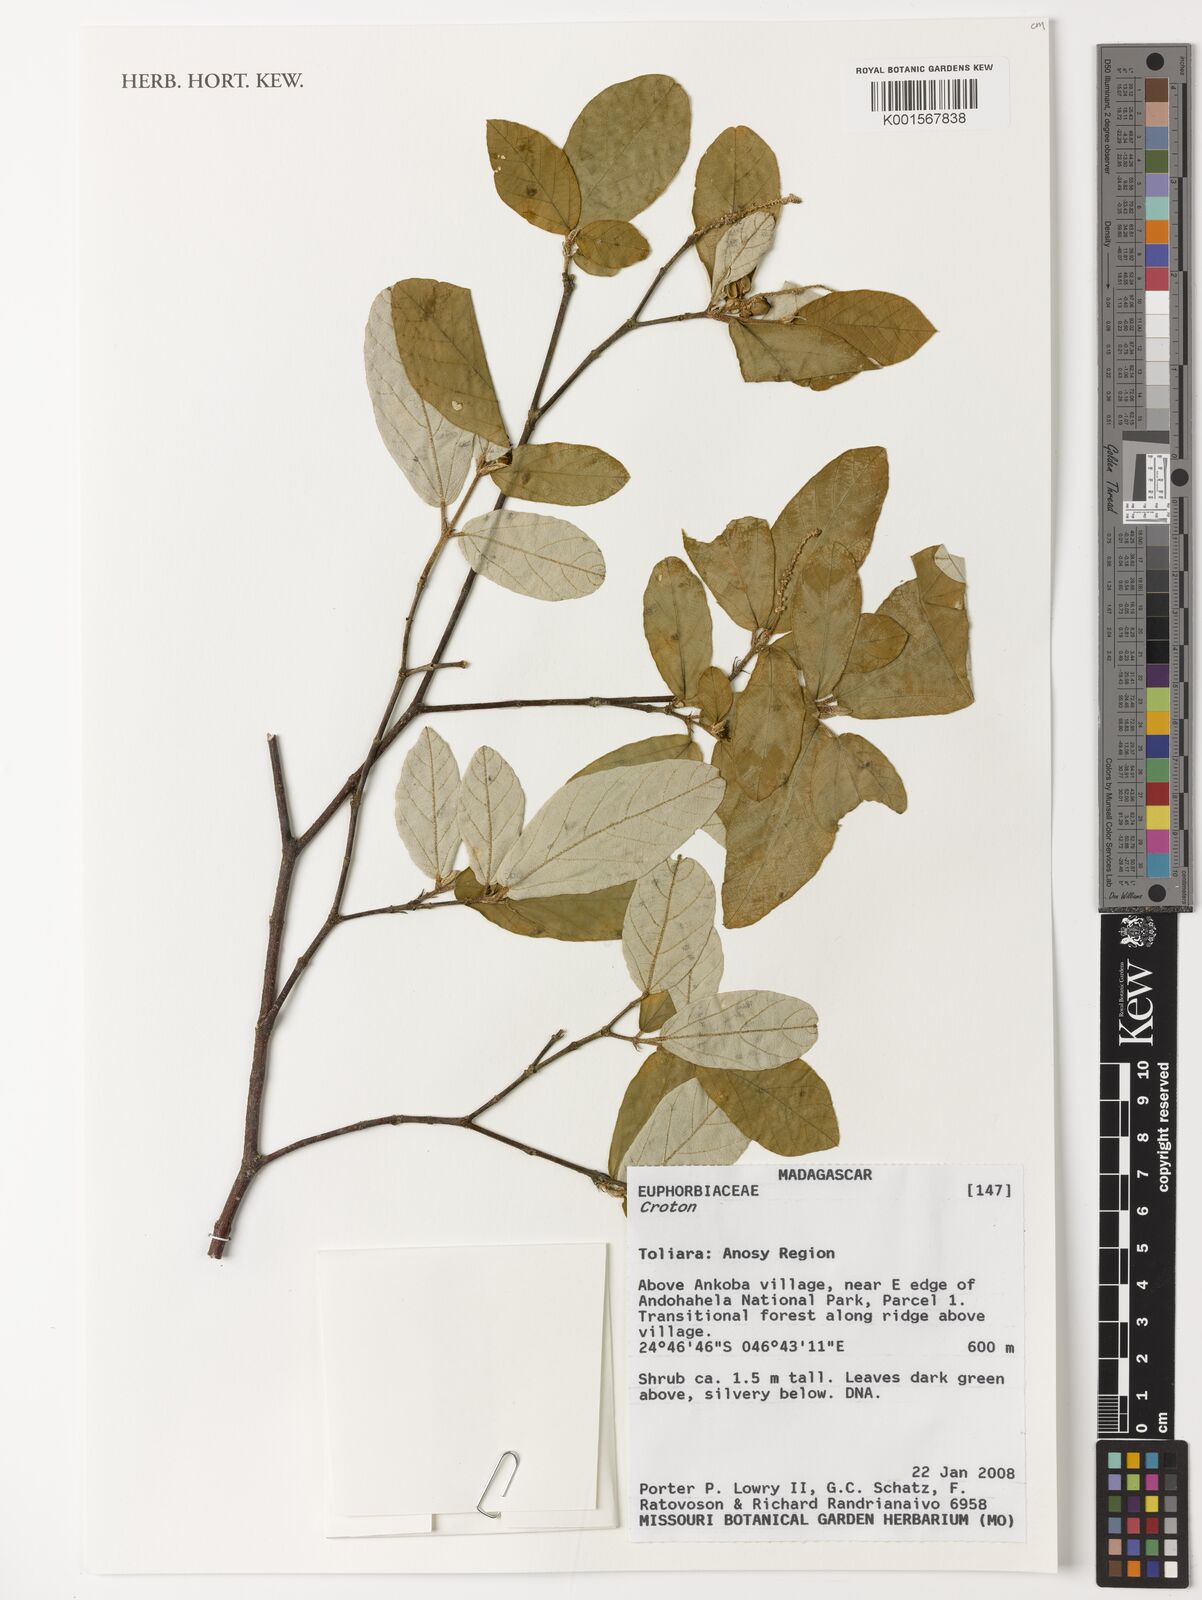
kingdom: Plantae
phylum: Tracheophyta
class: Magnoliopsida
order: Malpighiales
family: Euphorbiaceae
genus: Croton
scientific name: Croton
